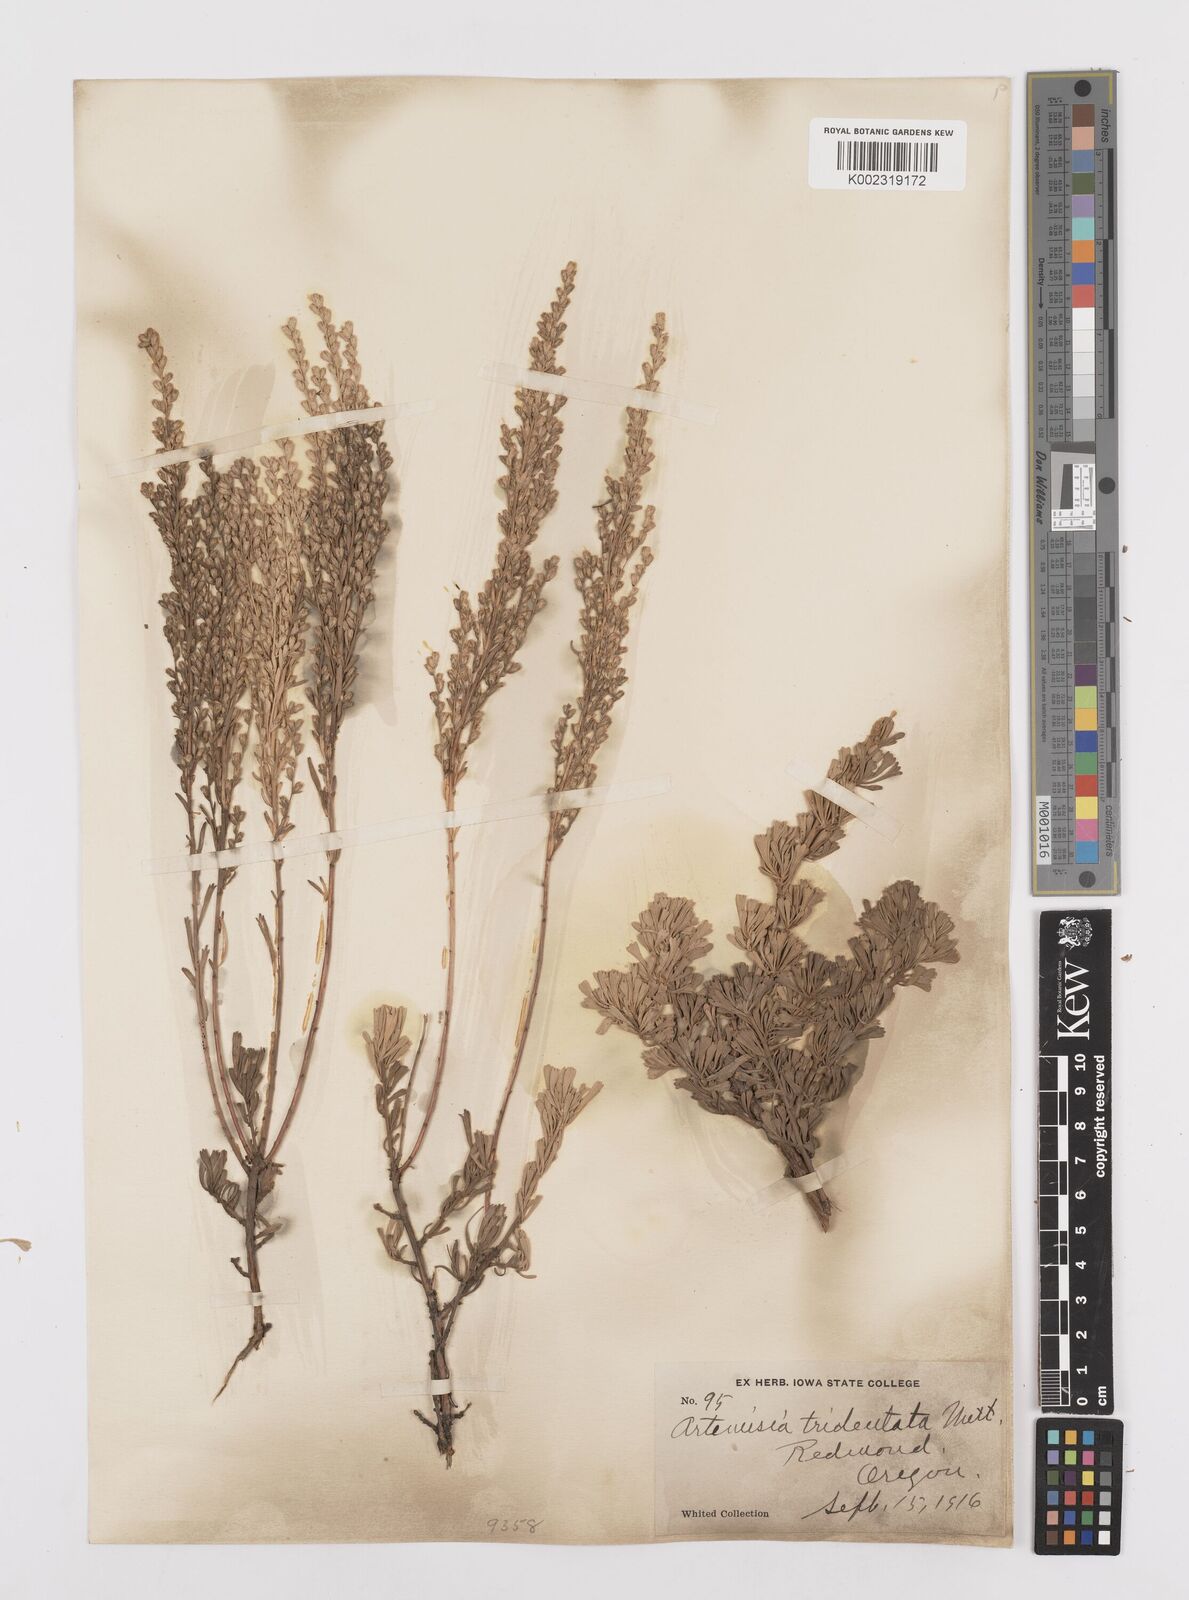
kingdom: Plantae
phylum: Tracheophyta
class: Magnoliopsida
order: Asterales
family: Asteraceae
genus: Artemisia
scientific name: Artemisia tridentata
